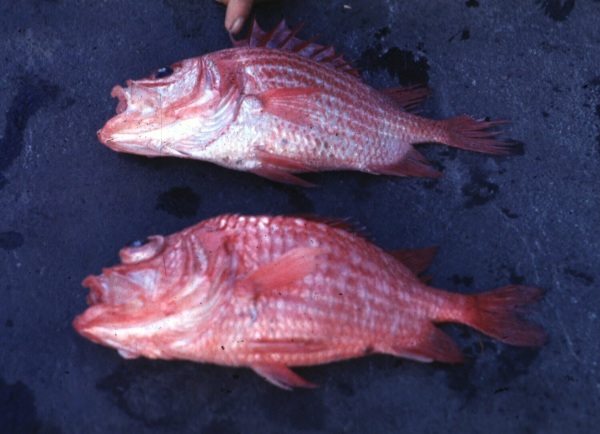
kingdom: Animalia
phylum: Chordata
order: Beryciformes
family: Holocentridae
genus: Ostichthys
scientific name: Ostichthys kaianus
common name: Deepwater soldier
